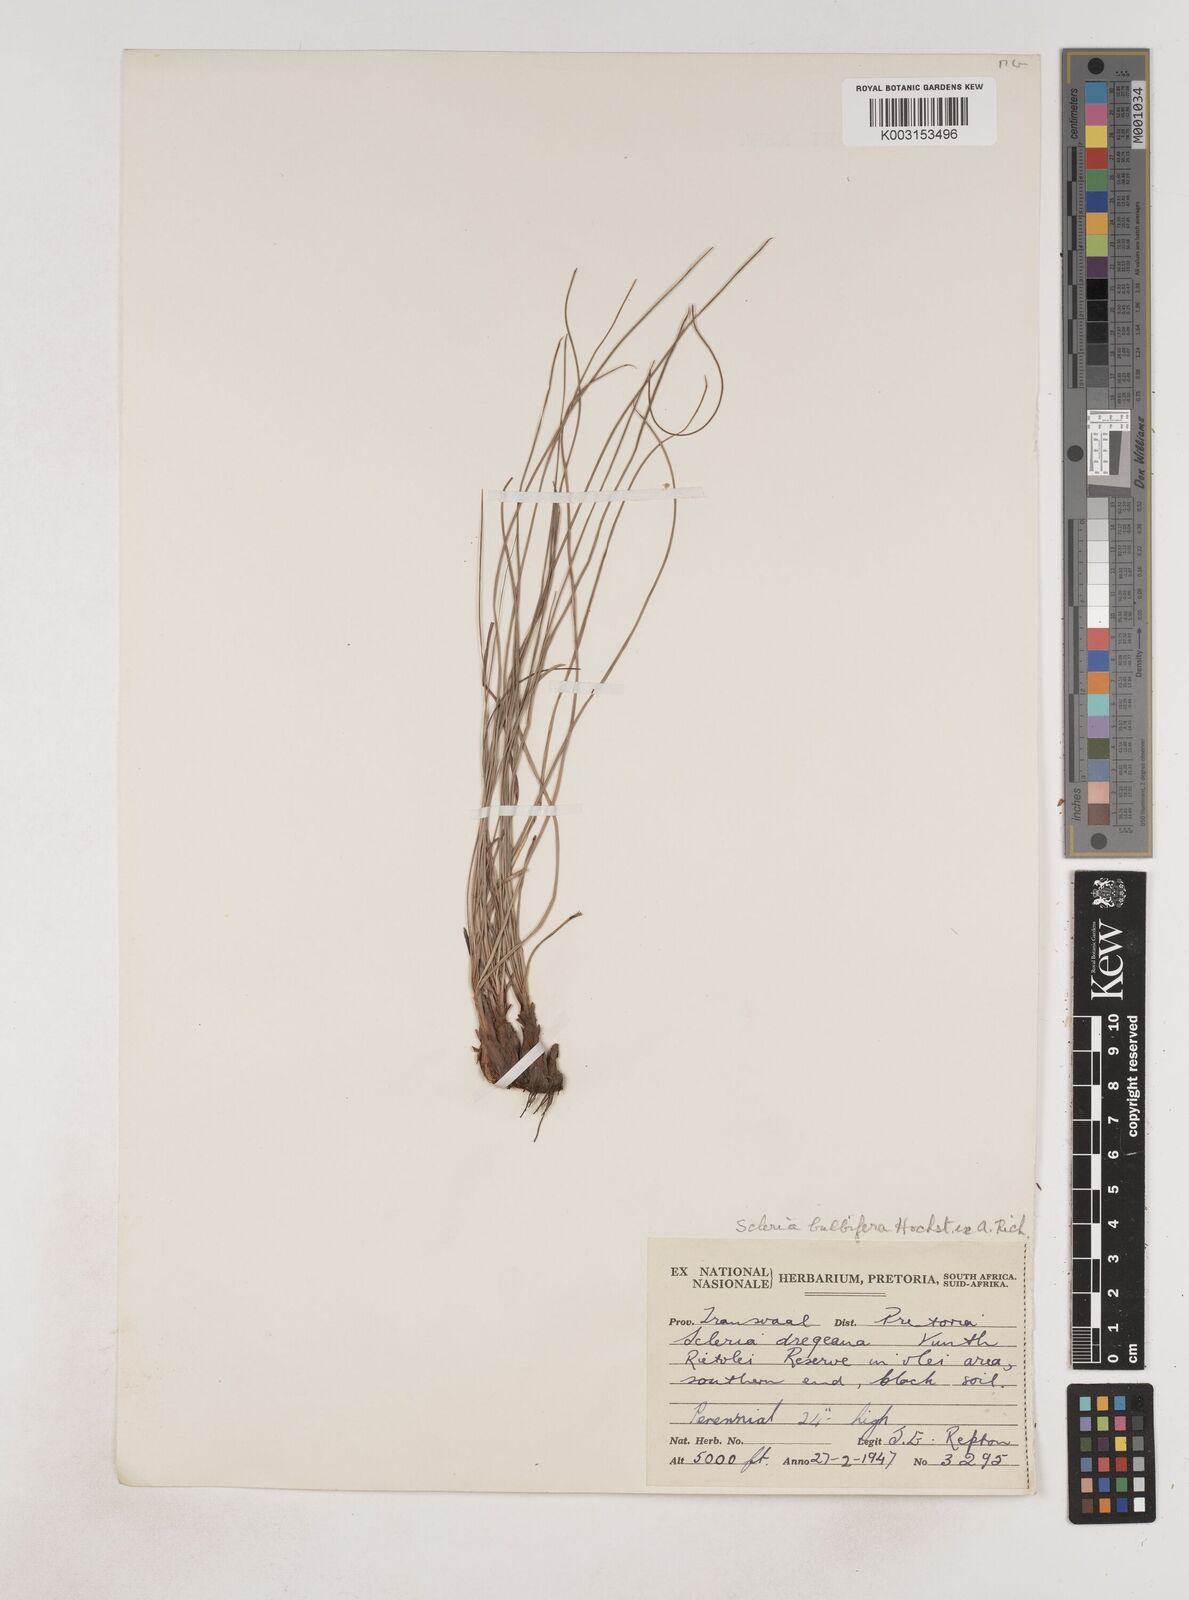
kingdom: Plantae
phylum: Tracheophyta
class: Liliopsida
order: Poales
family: Cyperaceae
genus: Cyperus
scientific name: Cyperus margaritaceus
